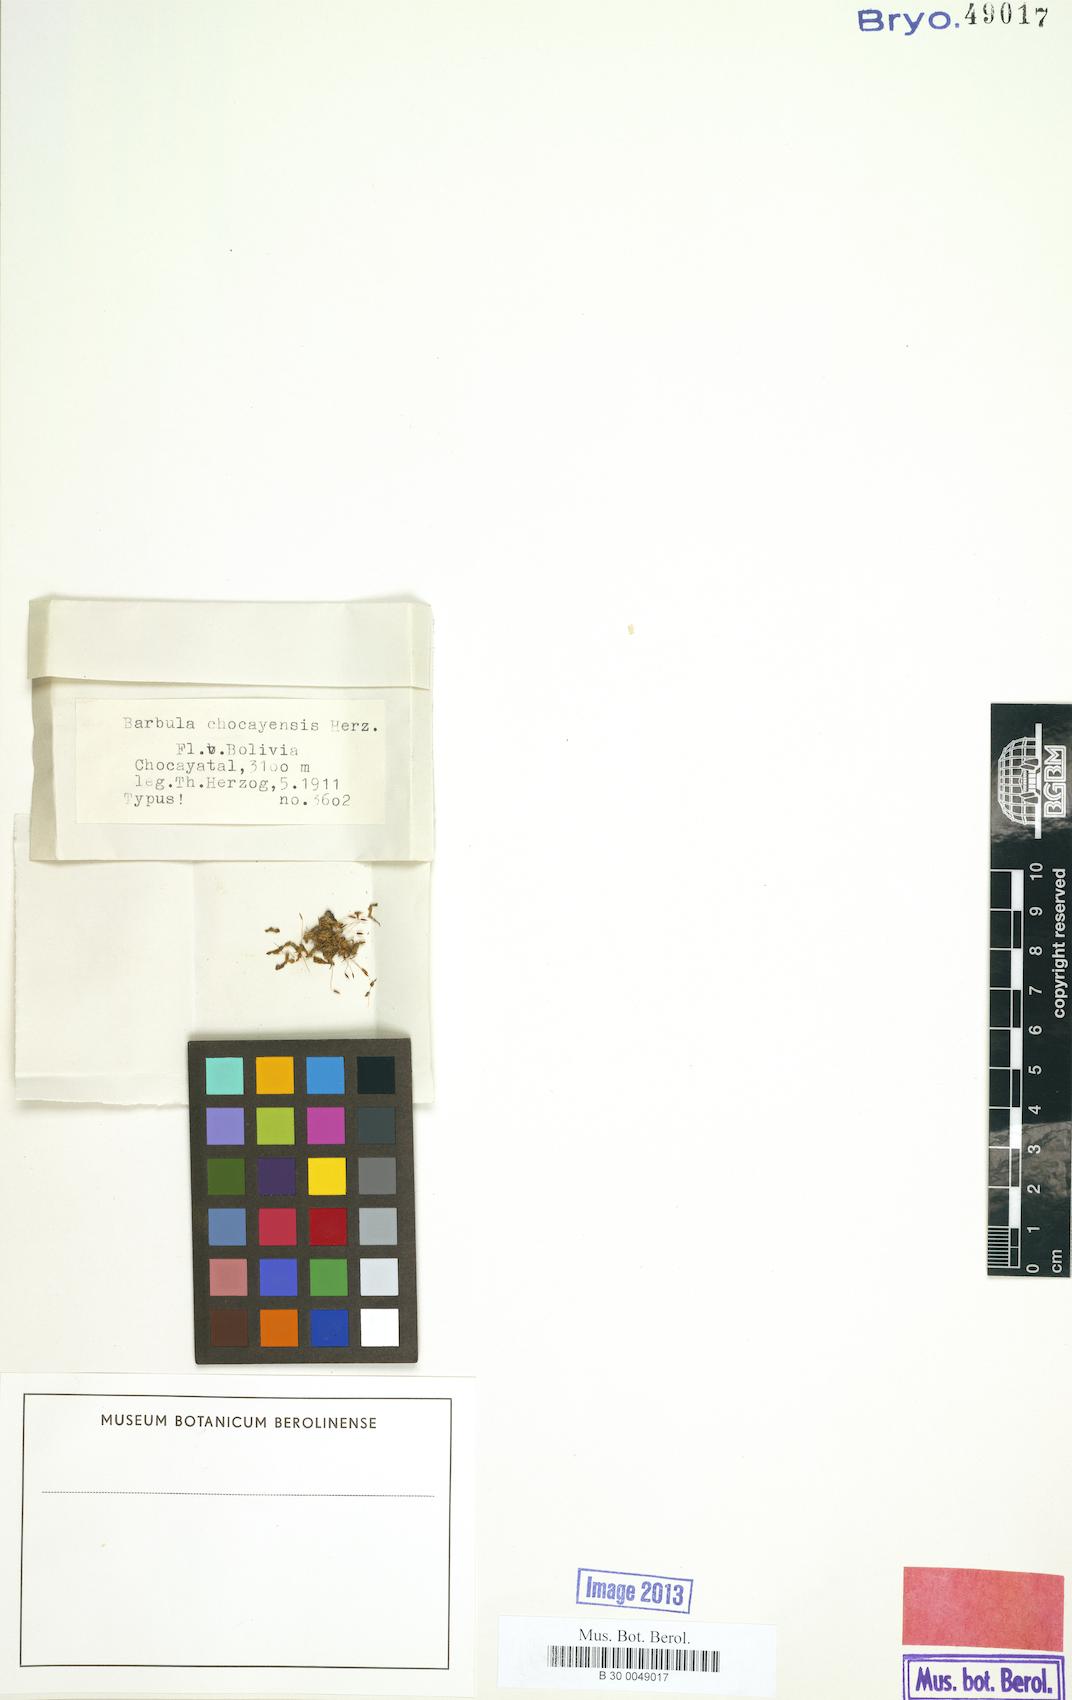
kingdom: Plantae
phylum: Bryophyta
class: Bryopsida
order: Pottiales
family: Pottiaceae
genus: Barbula
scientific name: Barbula chocayensis
